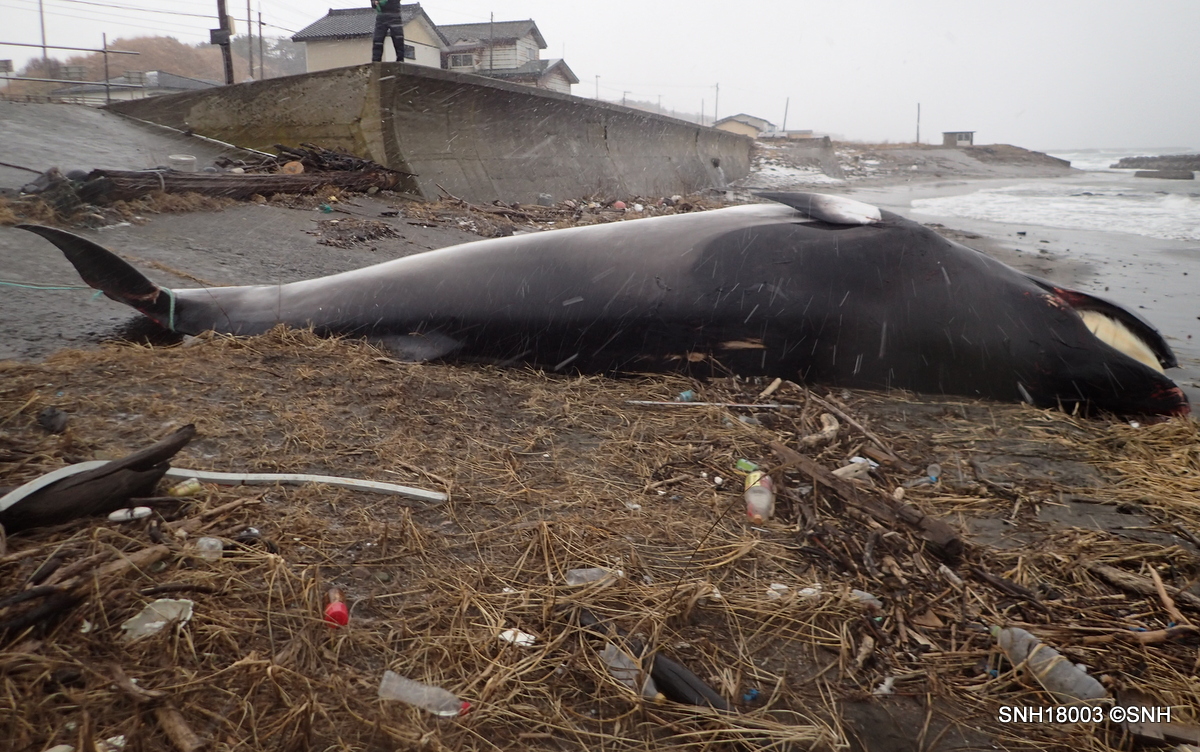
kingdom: Animalia
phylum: Chordata
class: Mammalia
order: Cetacea
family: Balaenopteridae
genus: Balaenoptera
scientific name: Balaenoptera acutorostrata
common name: Minke whale
